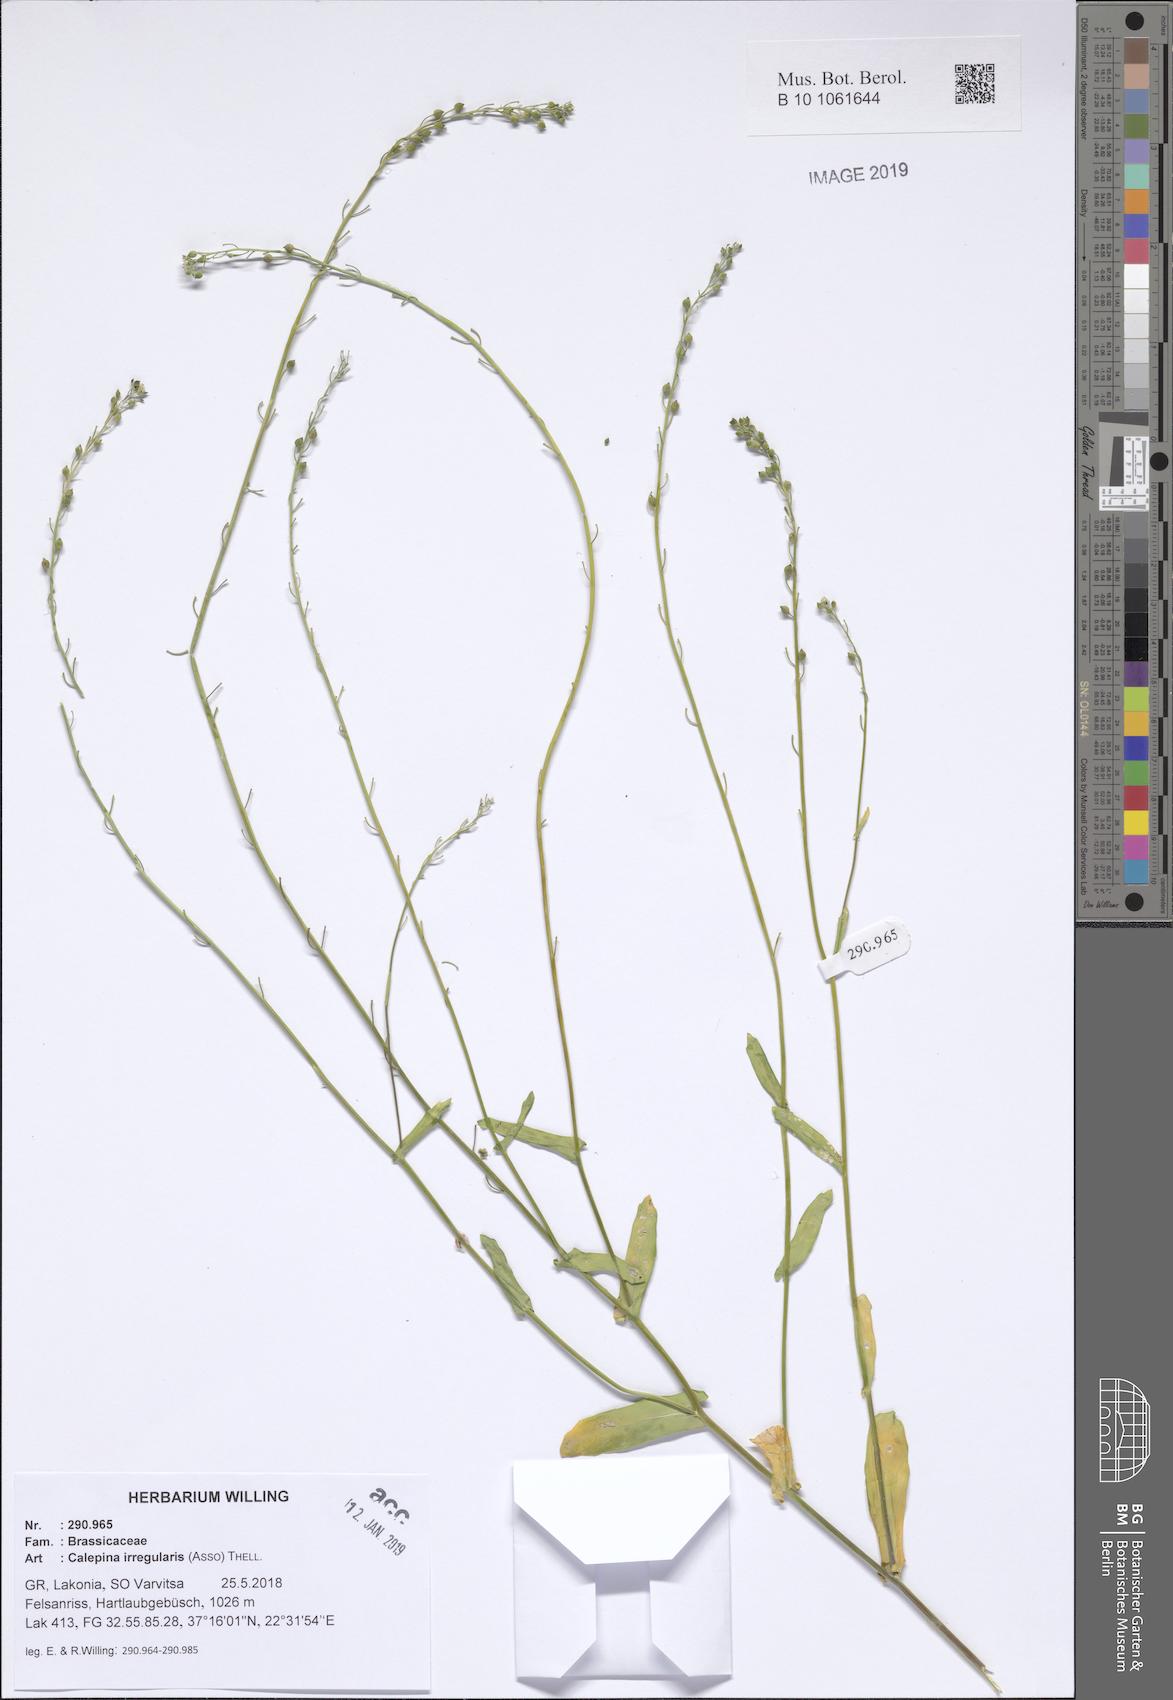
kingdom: Plantae
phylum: Tracheophyta
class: Magnoliopsida
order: Brassicales
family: Brassicaceae
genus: Calepina
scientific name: Calepina irregularis
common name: White ballmustard
